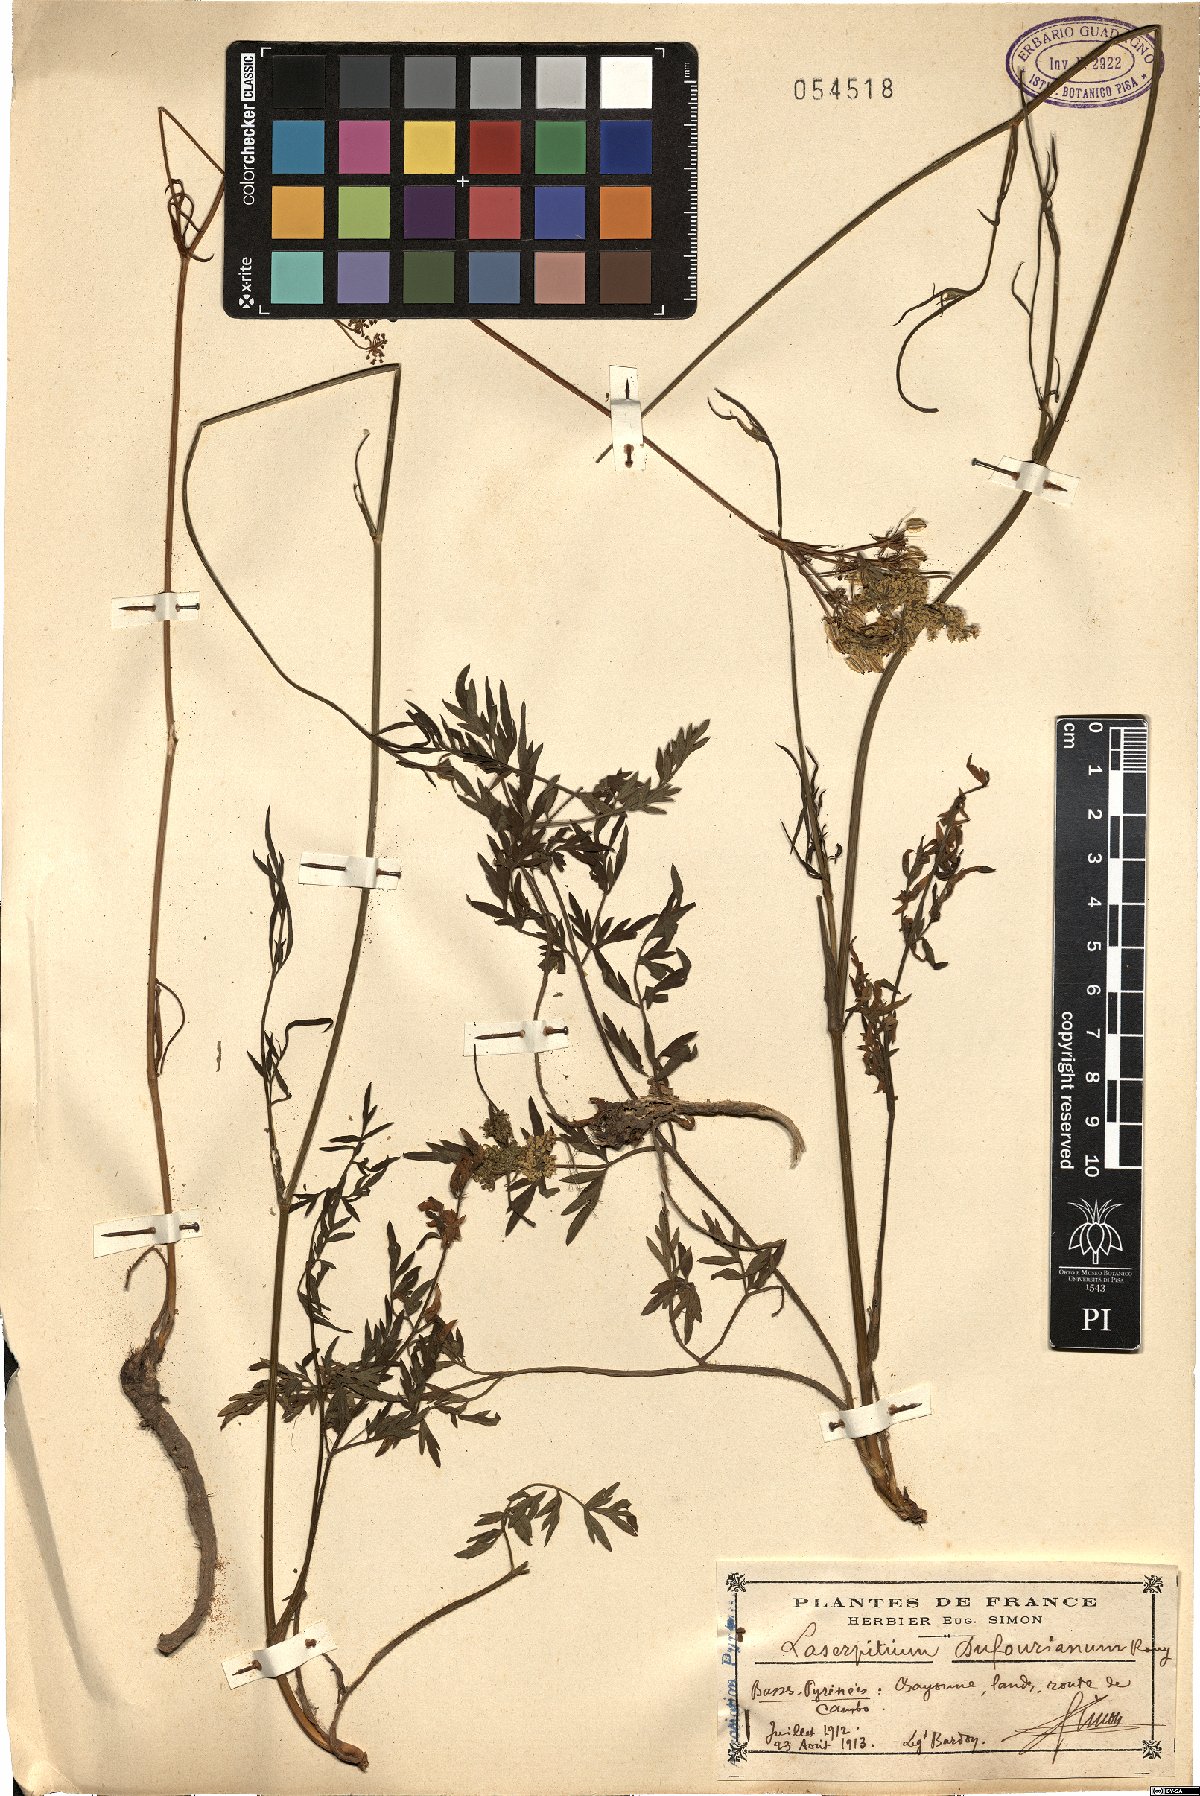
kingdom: Plantae
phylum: Tracheophyta
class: Magnoliopsida
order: Apiales
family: Apiaceae
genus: Silphiodaucus
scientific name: Silphiodaucus prutenicus
